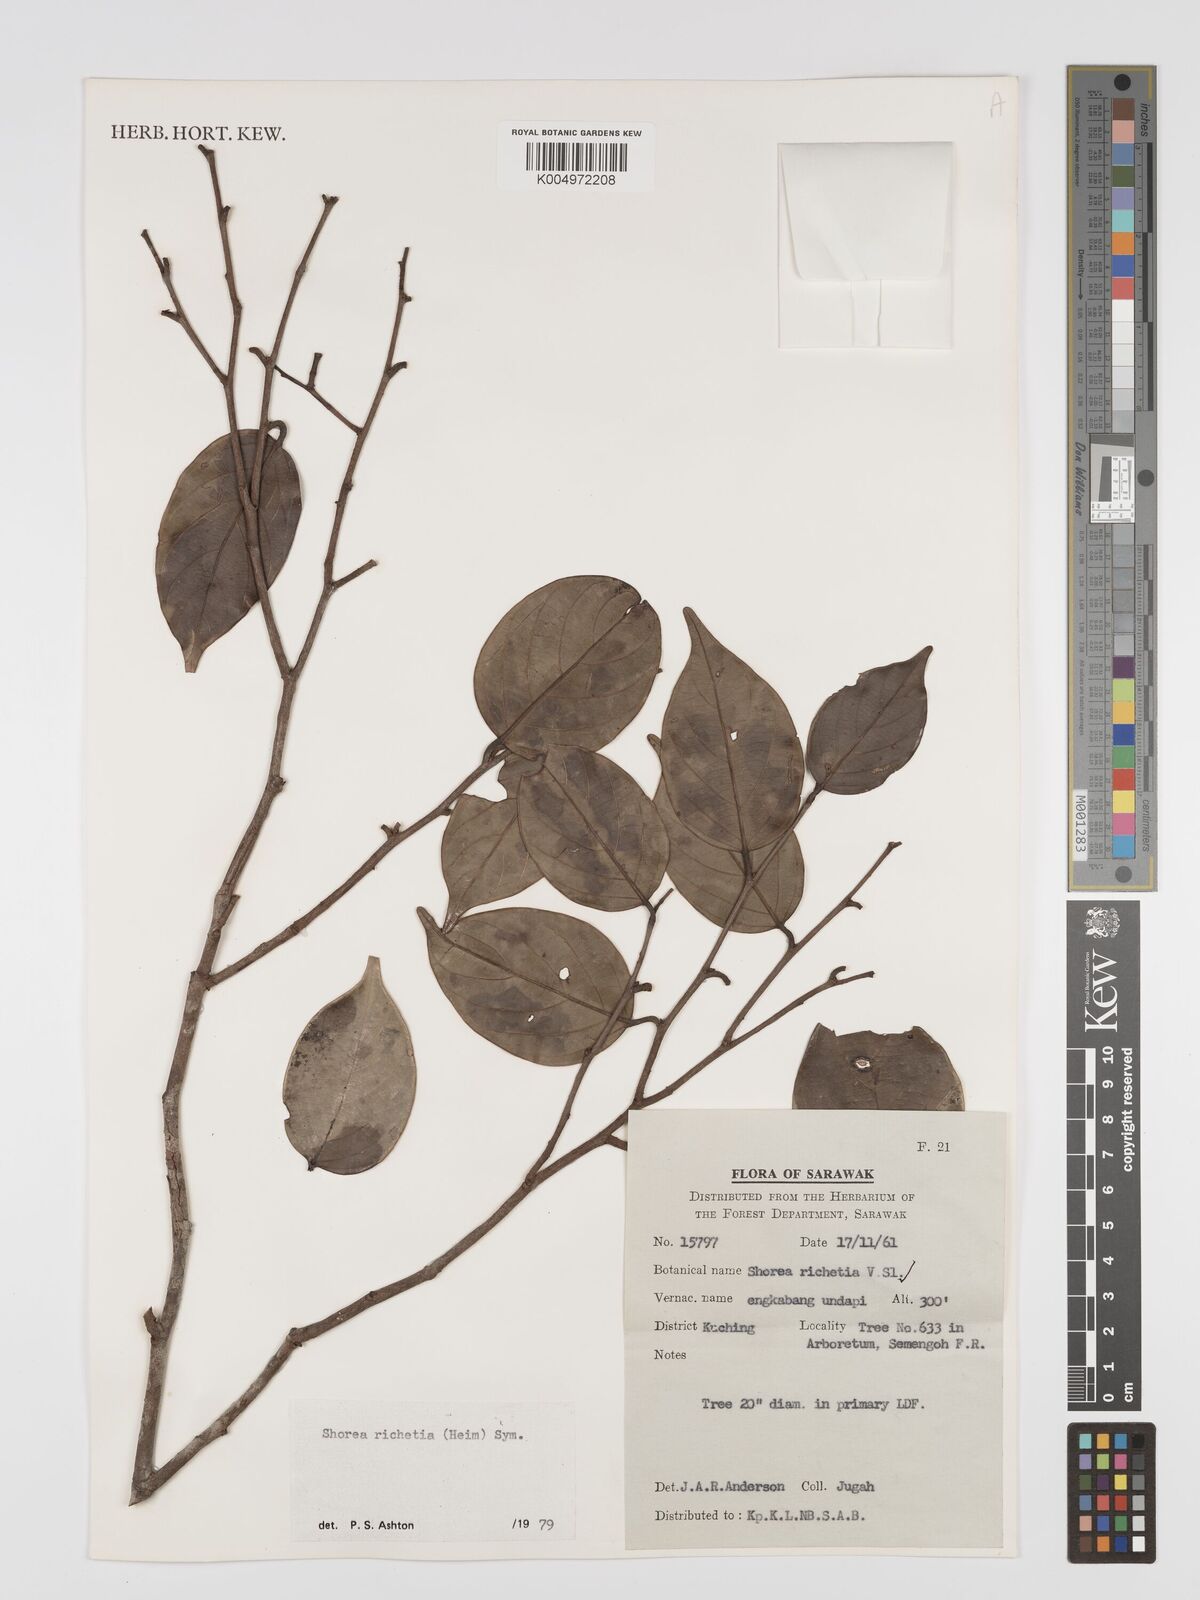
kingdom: Plantae
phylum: Tracheophyta
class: Magnoliopsida
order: Malvales
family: Dipterocarpaceae
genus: Shorea
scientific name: Shorea richetia
